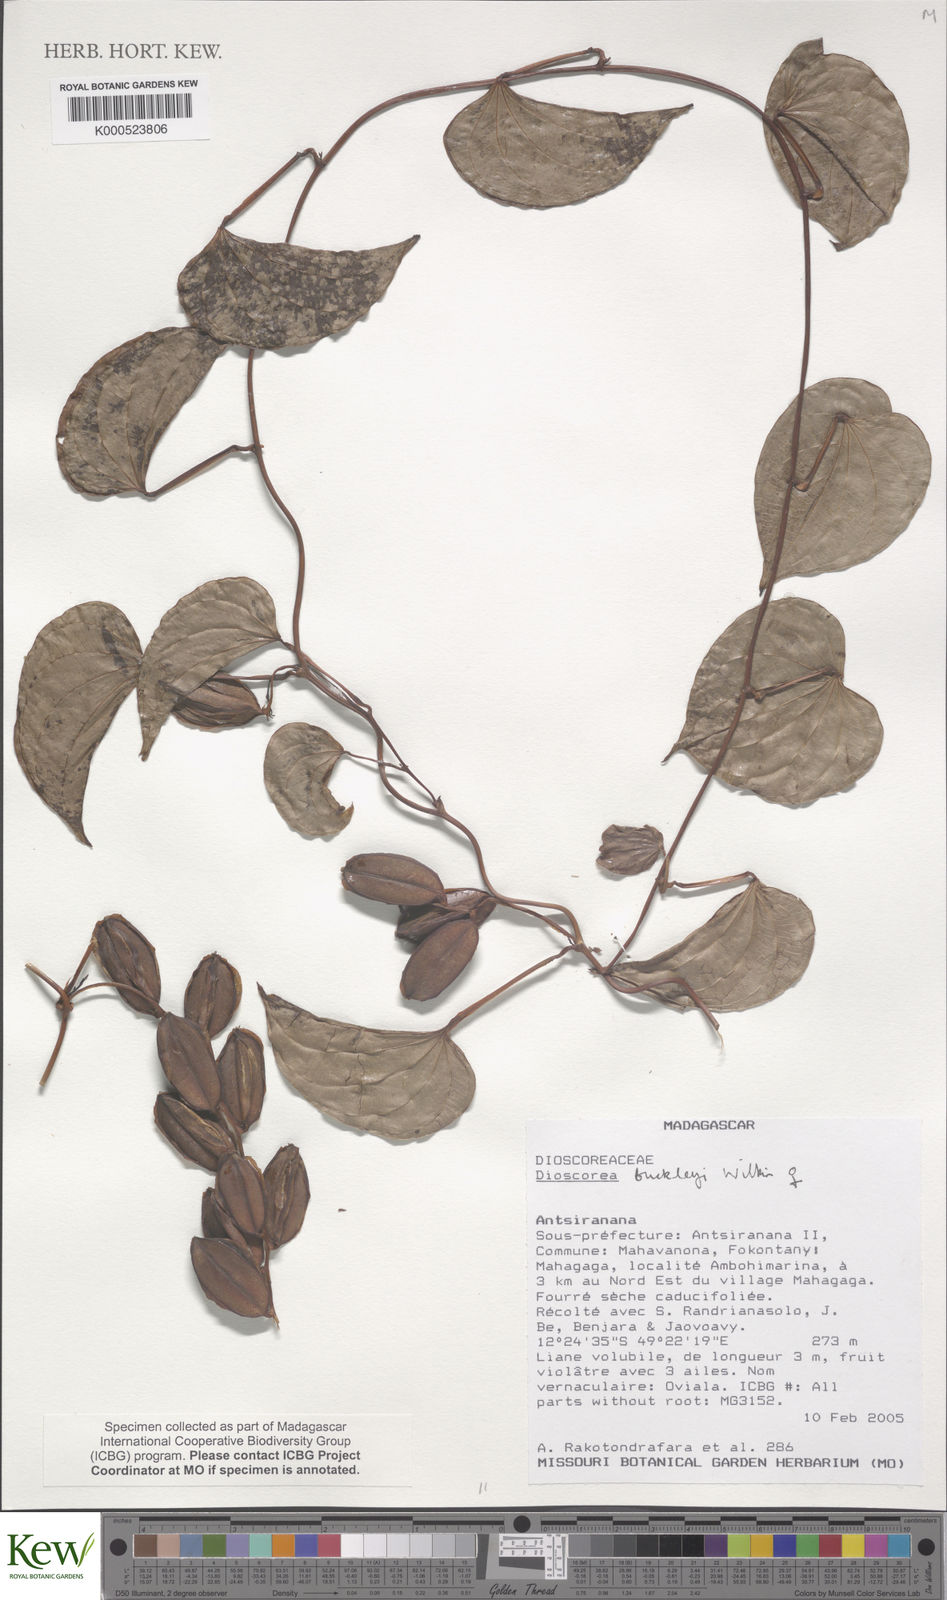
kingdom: Plantae
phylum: Tracheophyta
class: Liliopsida
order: Dioscoreales
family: Dioscoreaceae
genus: Dioscorea
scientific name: Dioscorea buckleyana
